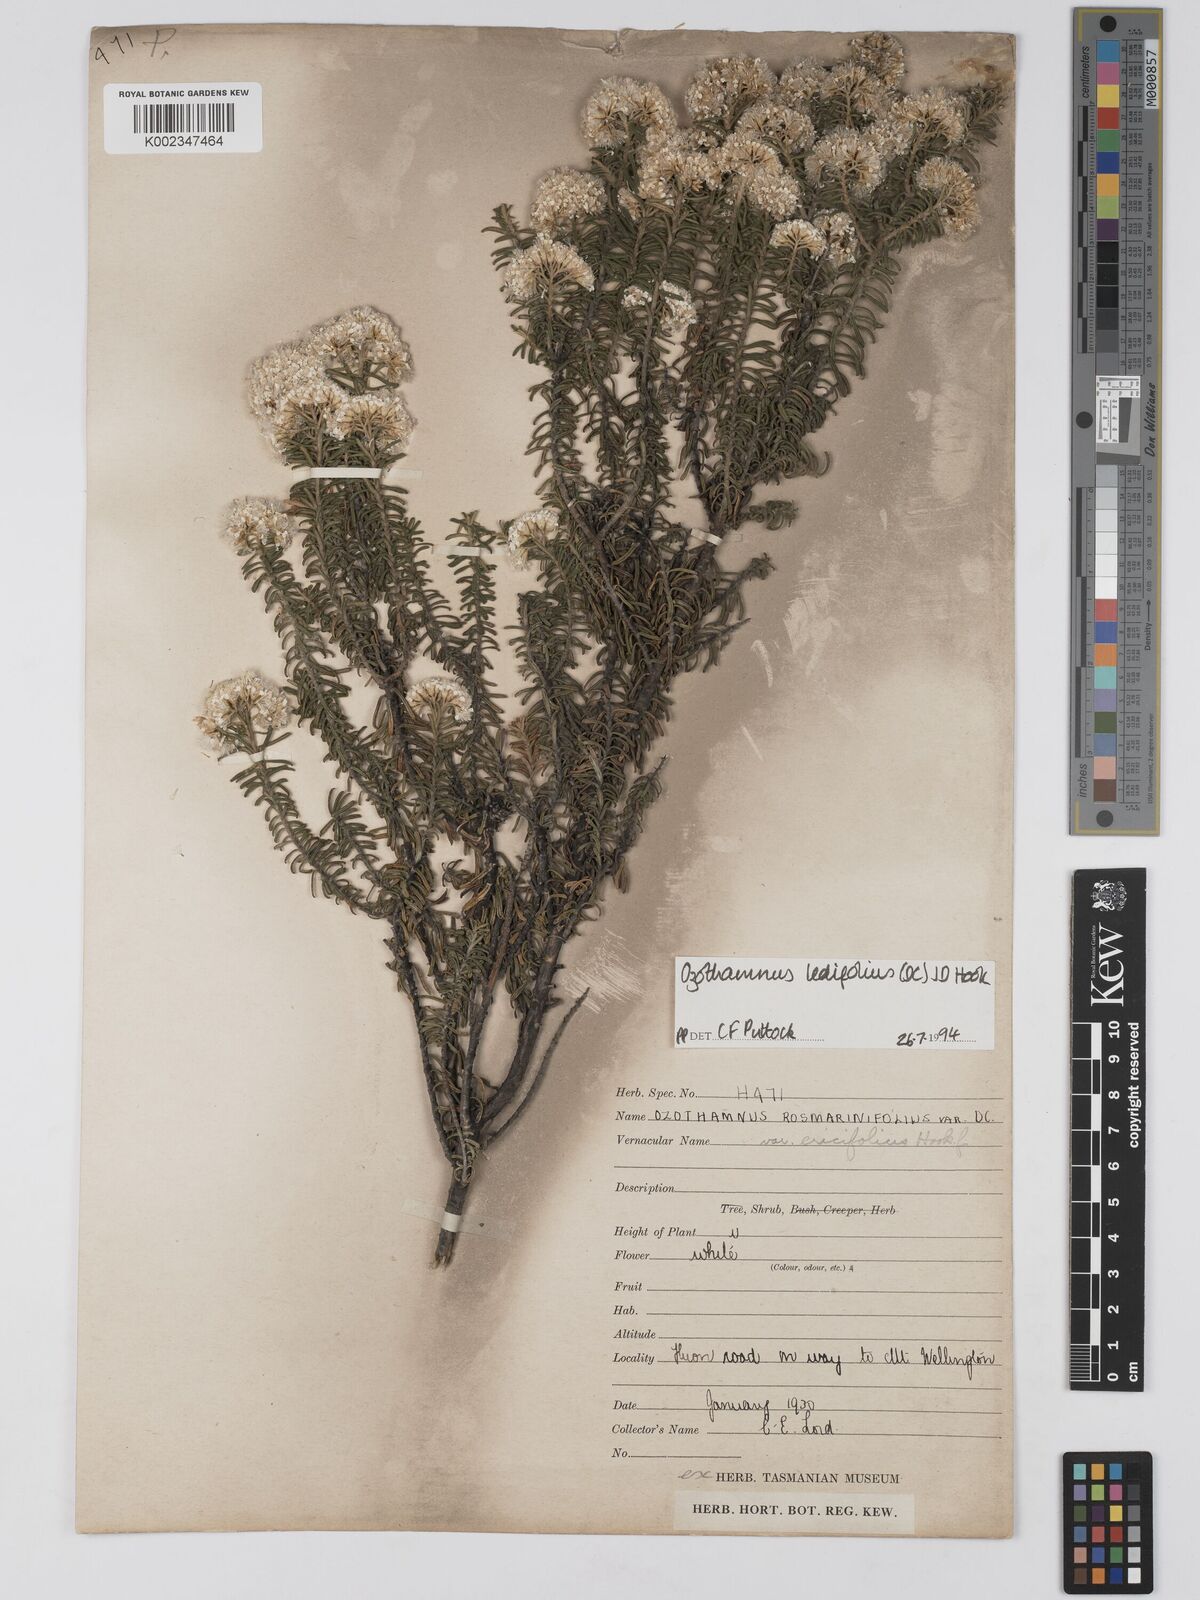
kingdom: Plantae
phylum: Tracheophyta
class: Magnoliopsida
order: Asterales
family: Asteraceae
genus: Ozothamnus
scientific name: Ozothamnus ledifolius
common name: Kerosene-weed
